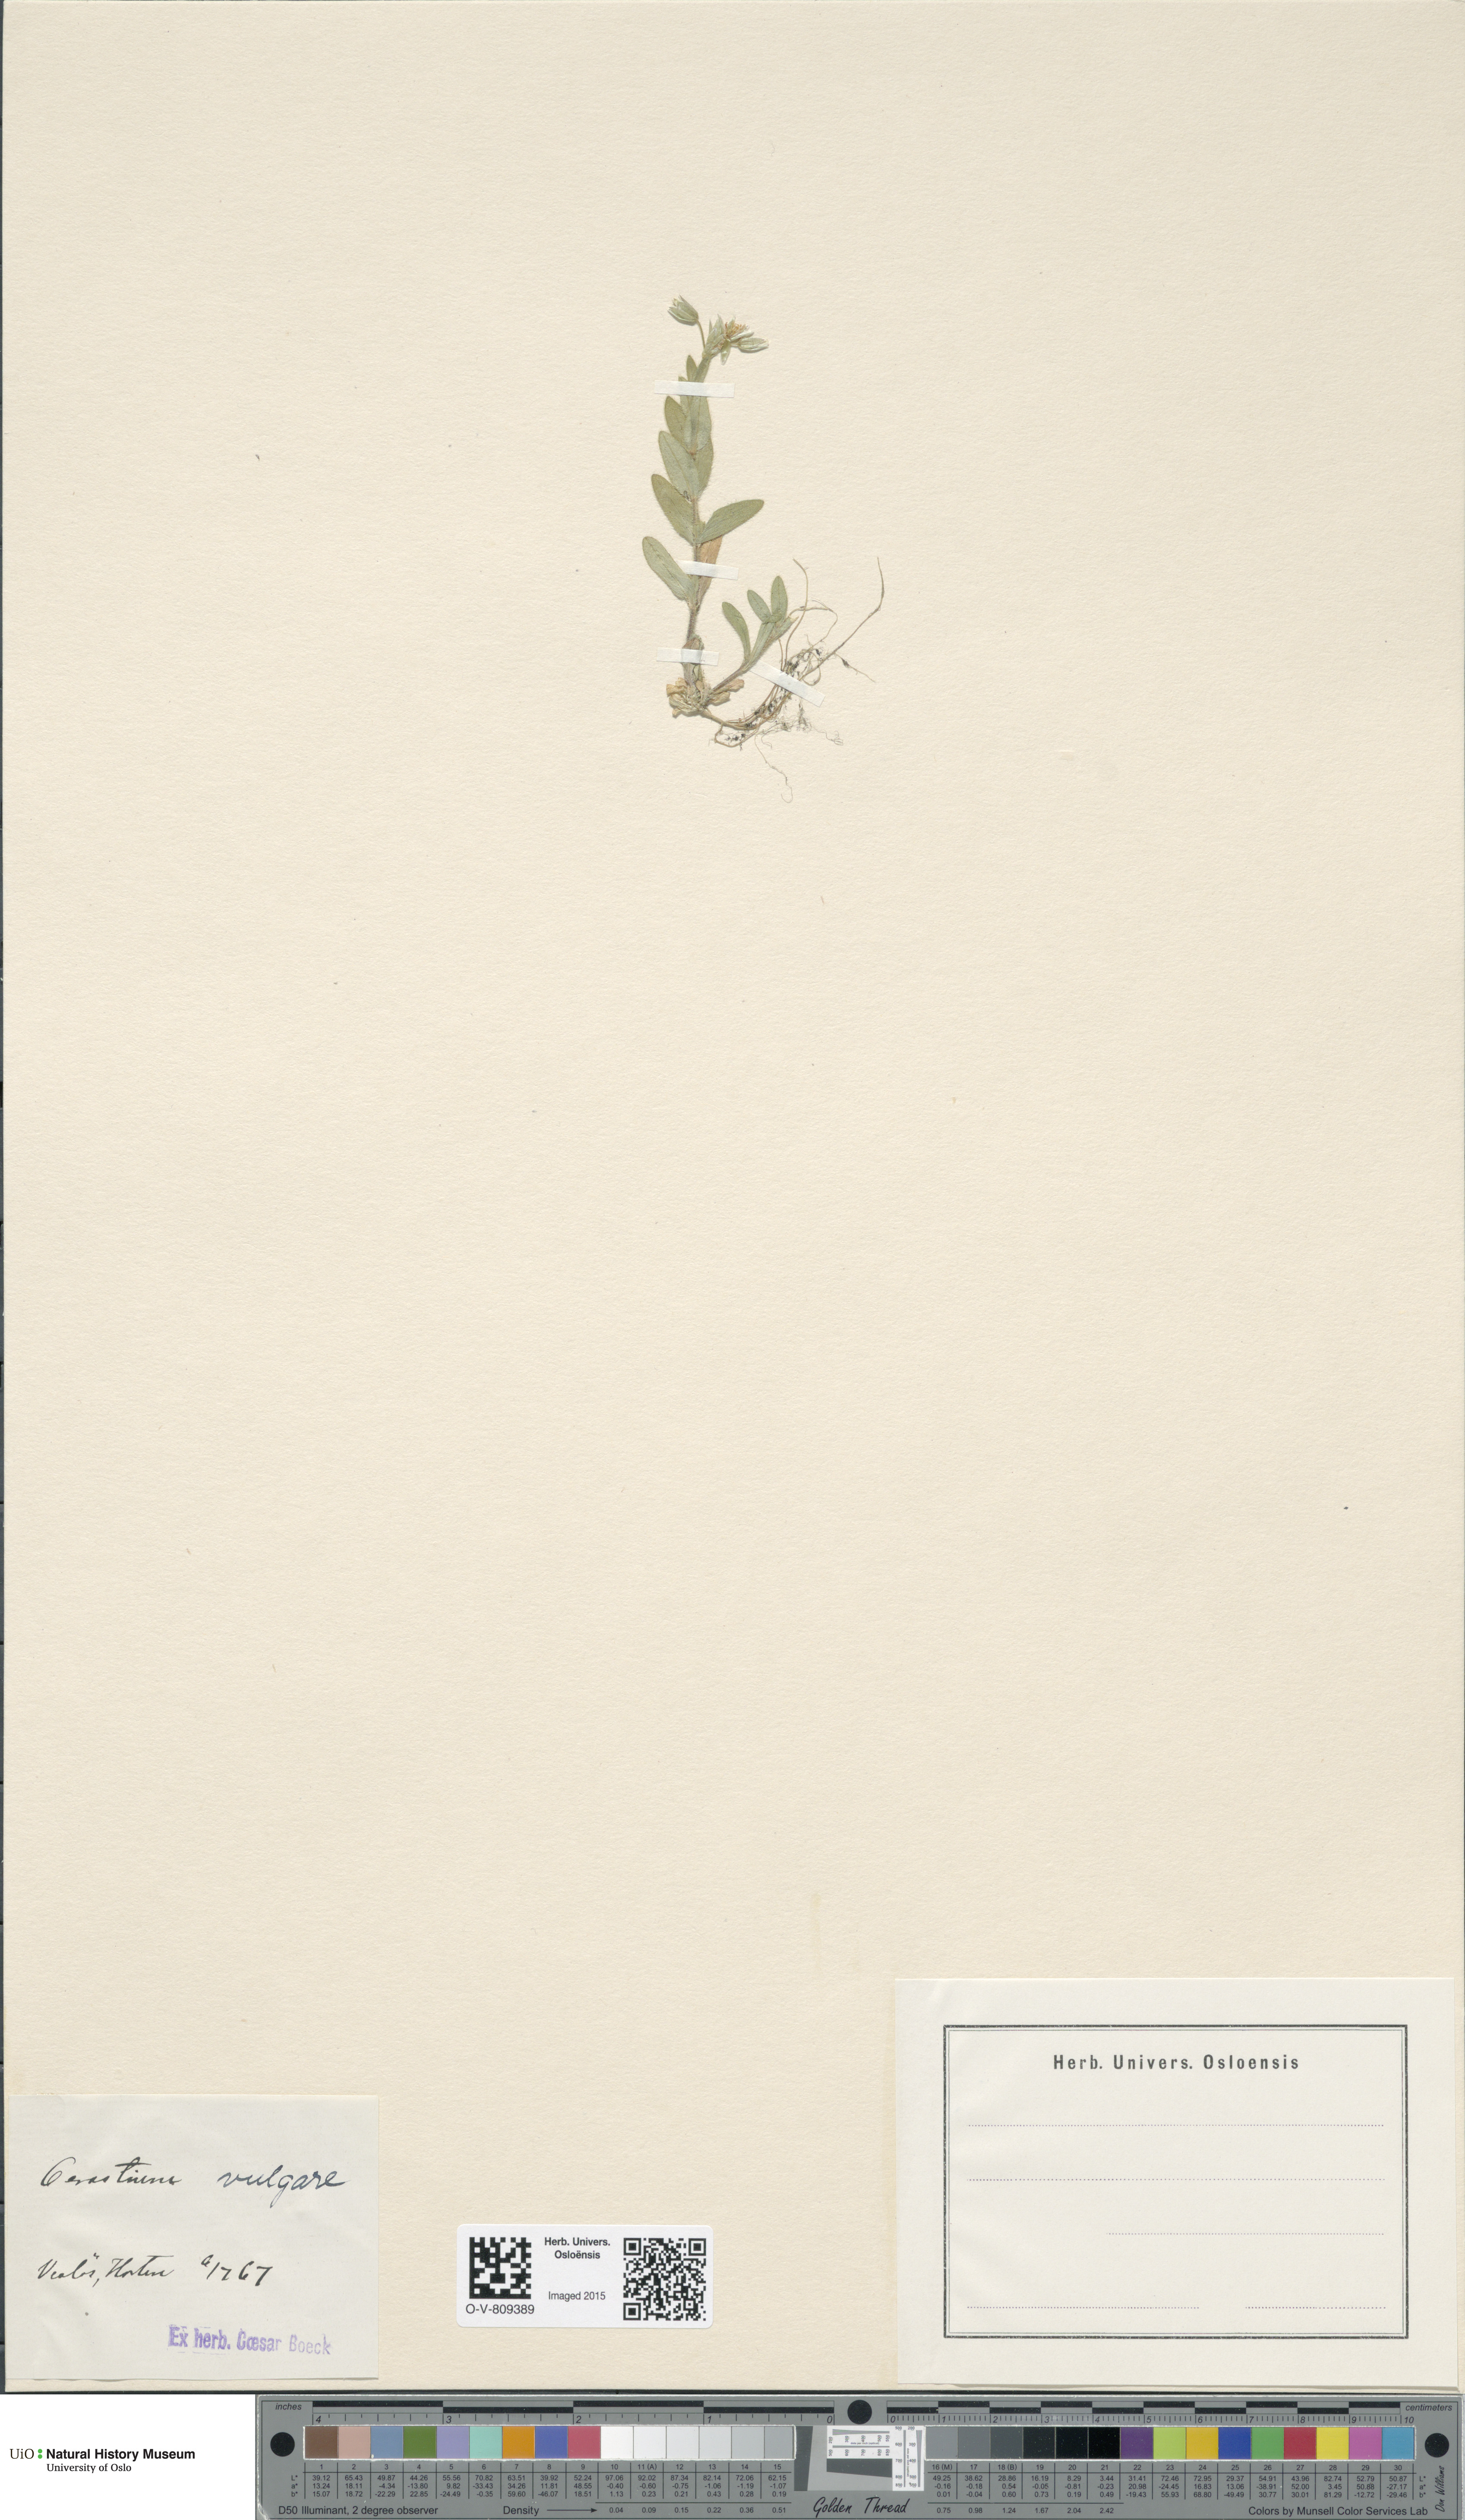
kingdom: Plantae
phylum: Tracheophyta
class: Magnoliopsida
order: Caryophyllales
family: Caryophyllaceae
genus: Cerastium
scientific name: Cerastium holosteoides
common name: Big chickweed
